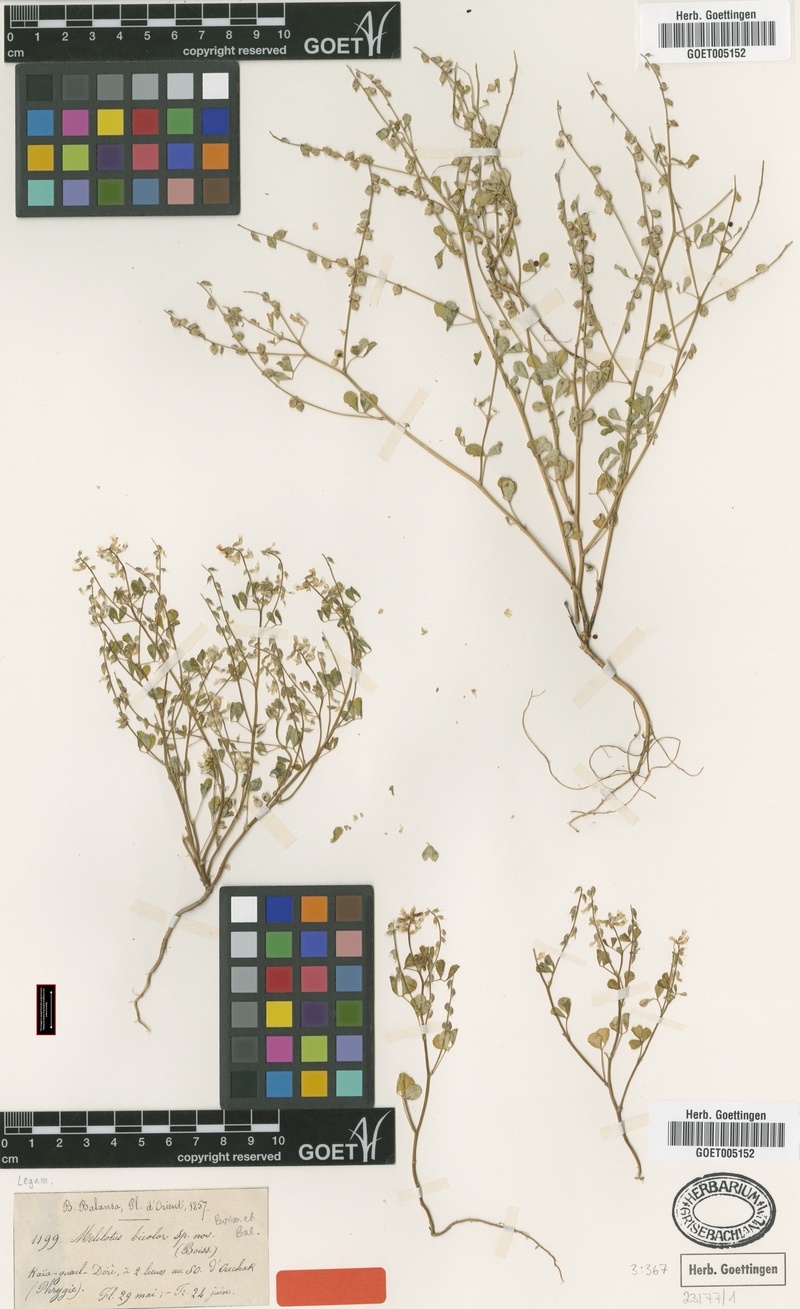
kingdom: Plantae
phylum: Tracheophyta
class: Magnoliopsida
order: Fabales
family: Fabaceae
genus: Melilotus
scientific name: Melilotus bicolor
